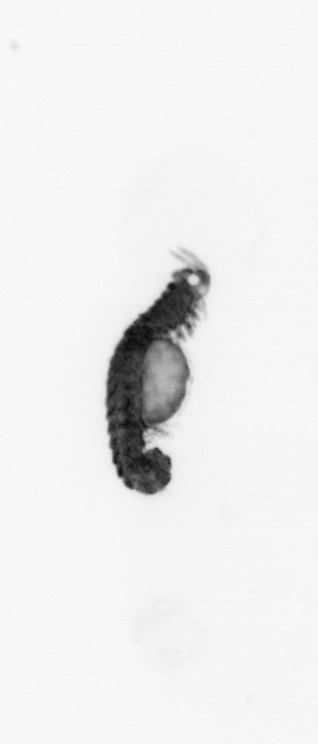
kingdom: Animalia
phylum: Annelida
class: Polychaeta
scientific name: Polychaeta
